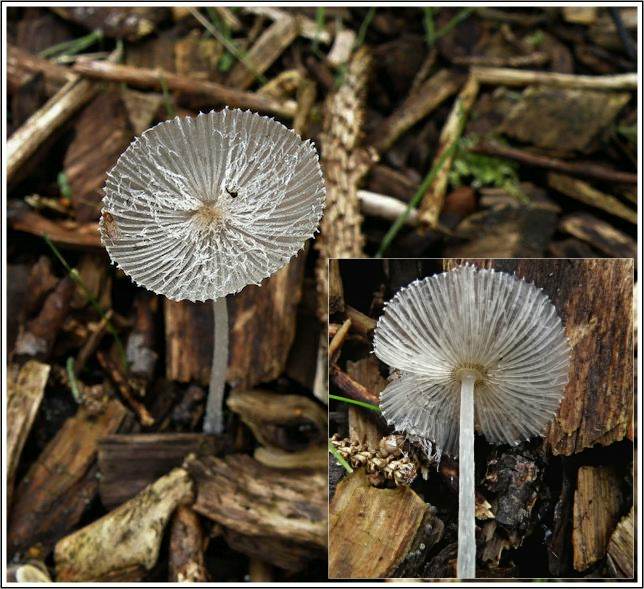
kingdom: Fungi
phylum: Basidiomycota
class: Agaricomycetes
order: Agaricales
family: Psathyrellaceae
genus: Coprinopsis
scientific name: Coprinopsis lagopus
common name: dunstokket blækhat
